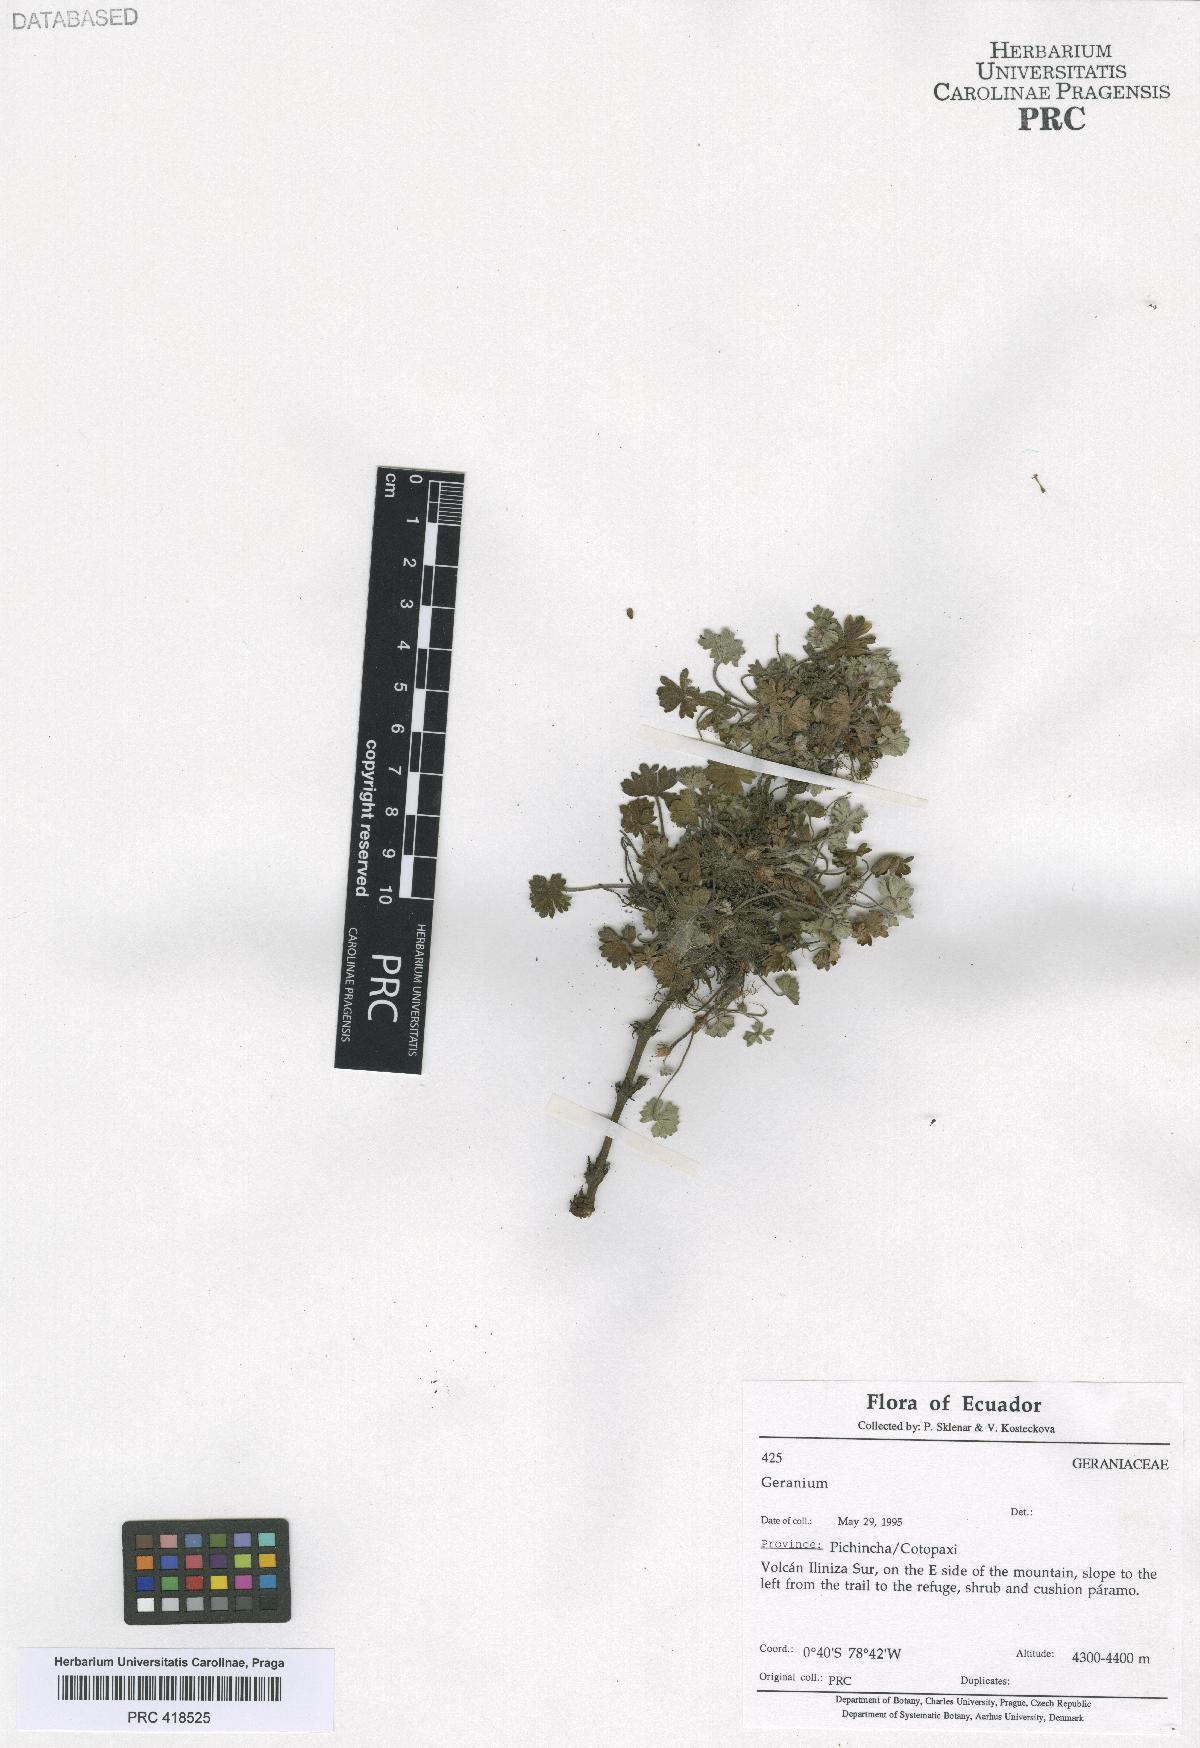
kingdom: Plantae
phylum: Tracheophyta
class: Magnoliopsida
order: Geraniales
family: Geraniaceae
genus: Geranium
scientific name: Geranium reptans
